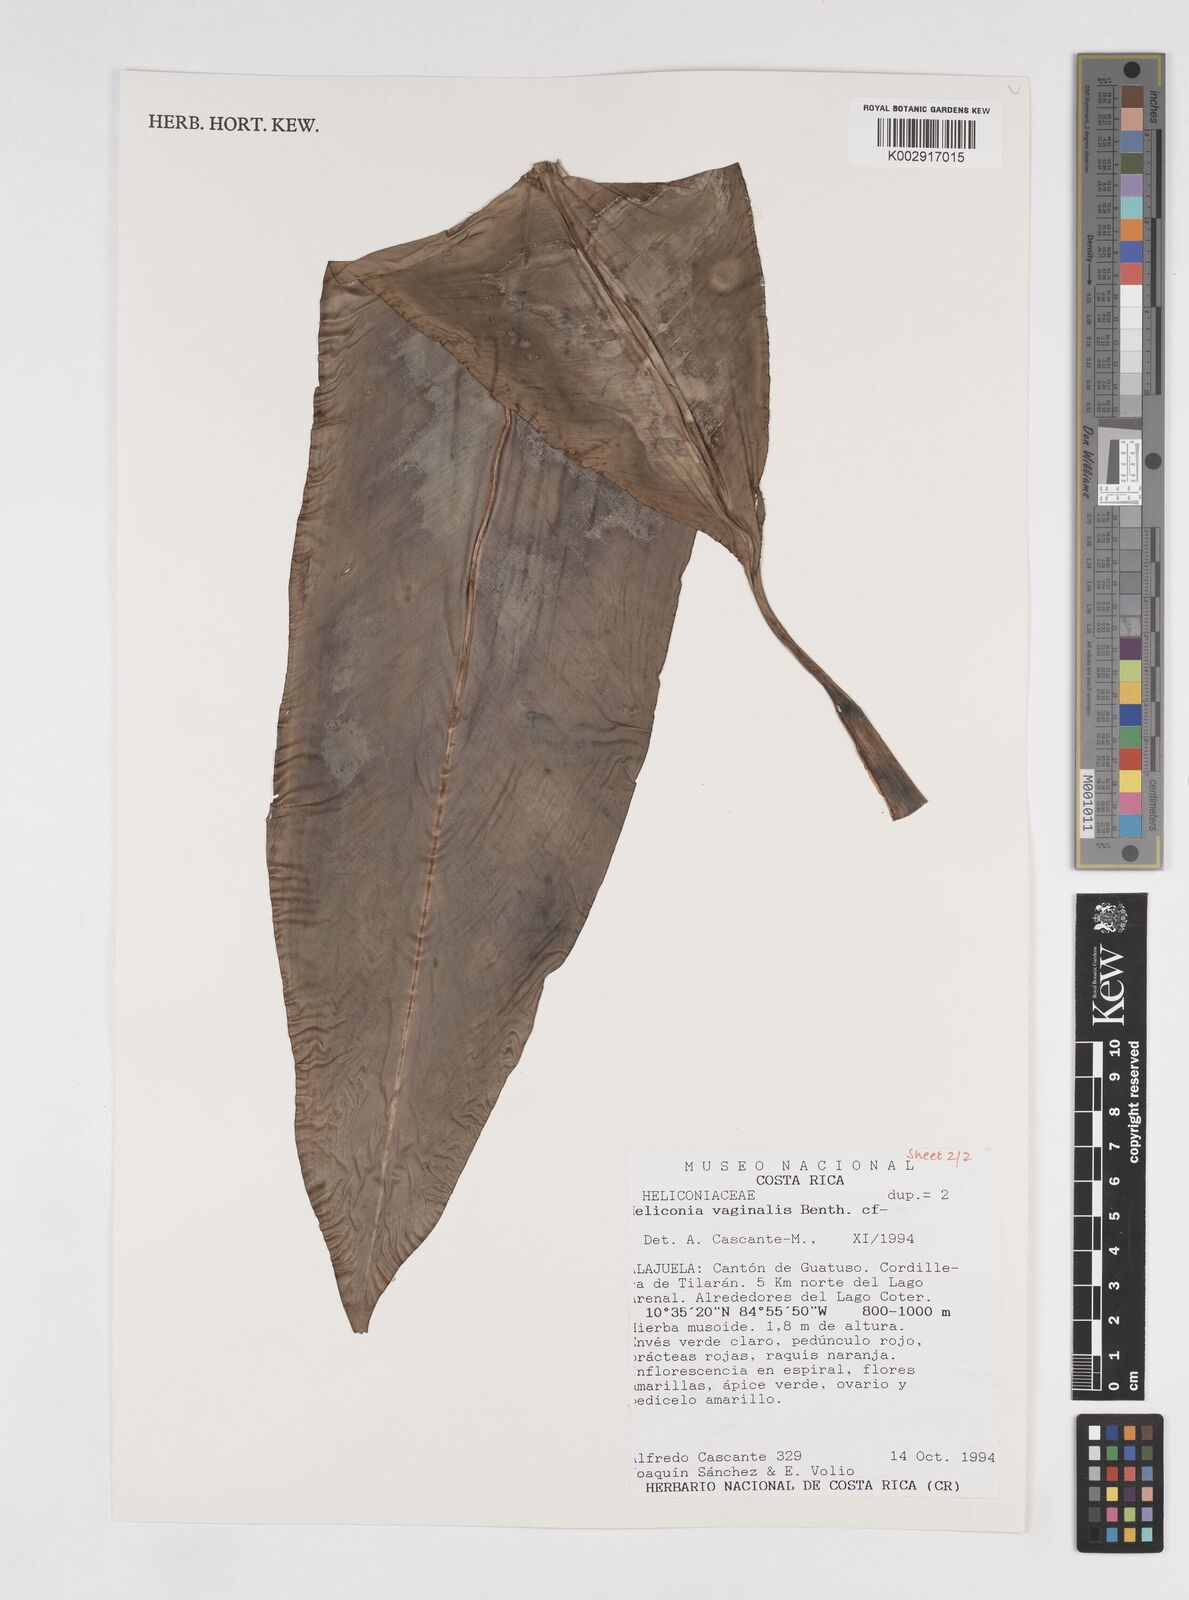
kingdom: Plantae
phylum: Tracheophyta
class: Liliopsida
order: Zingiberales
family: Heliconiaceae
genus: Heliconia
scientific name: Heliconia vaginalis
